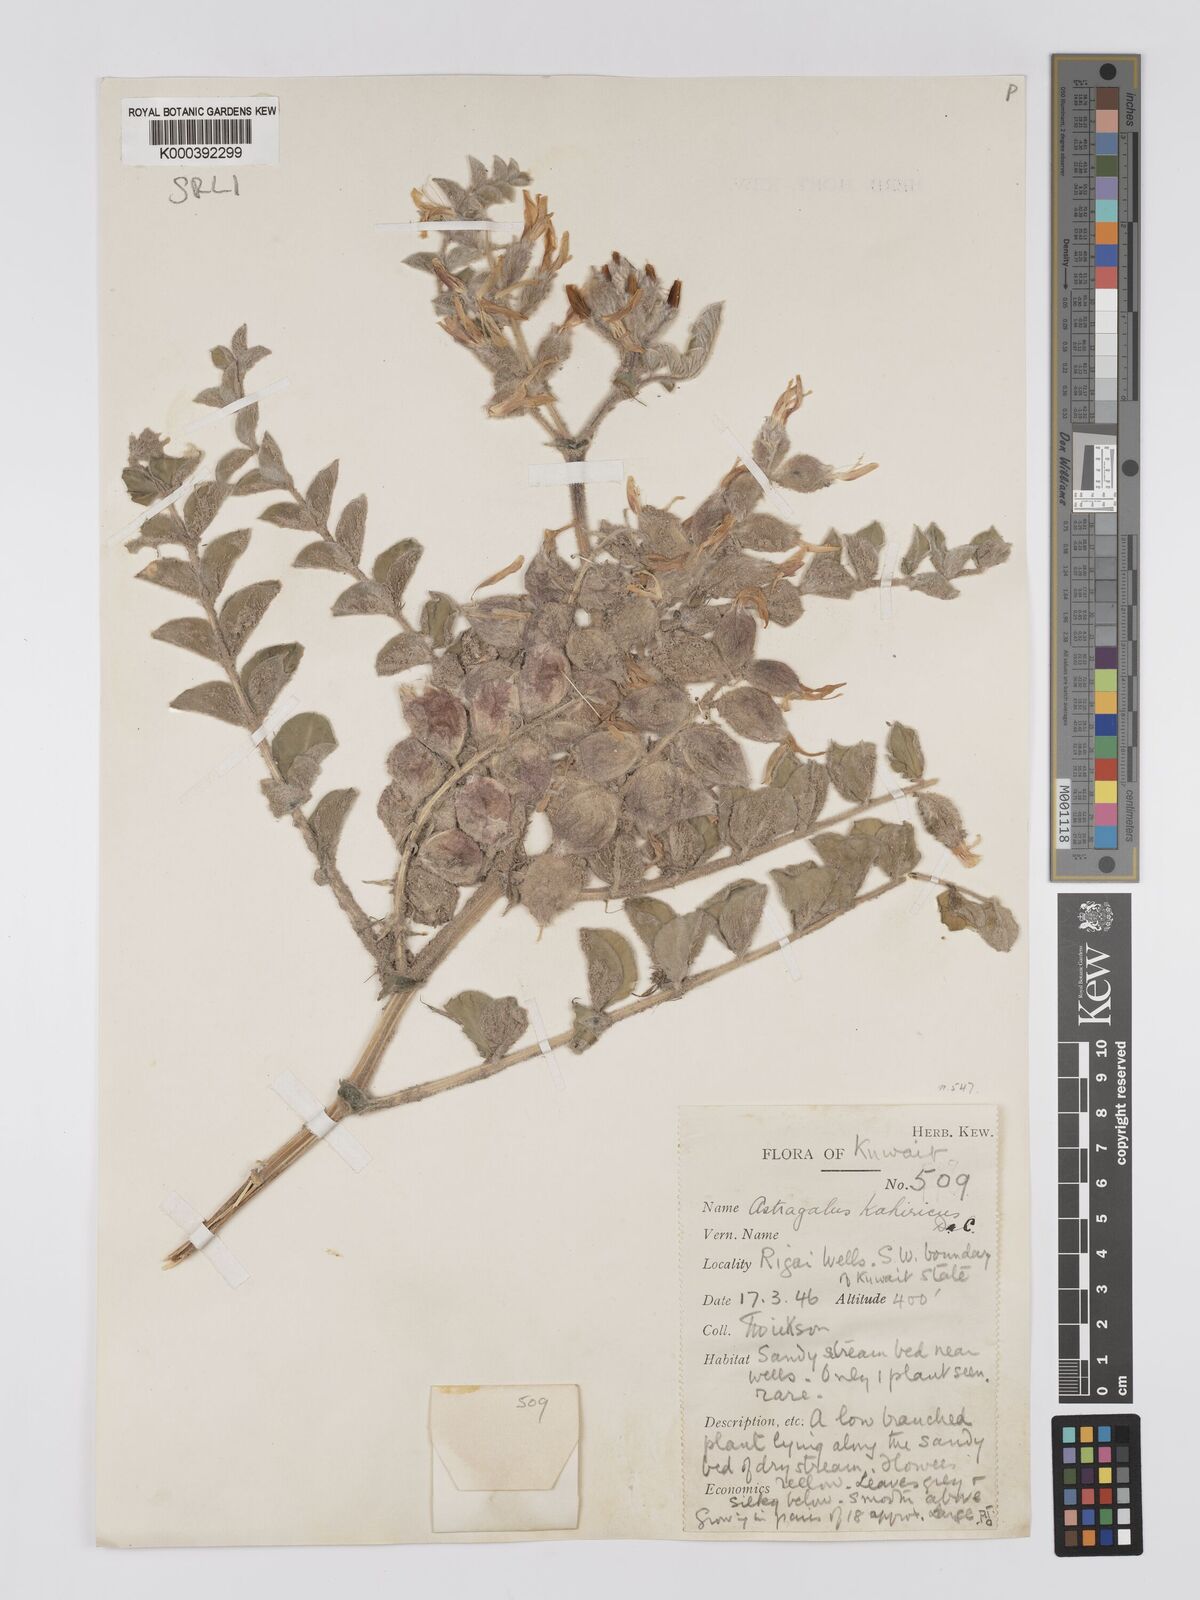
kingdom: Plantae
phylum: Tracheophyta
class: Magnoliopsida
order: Fabales
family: Fabaceae
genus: Astragalus
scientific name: Astragalus kahiricus
